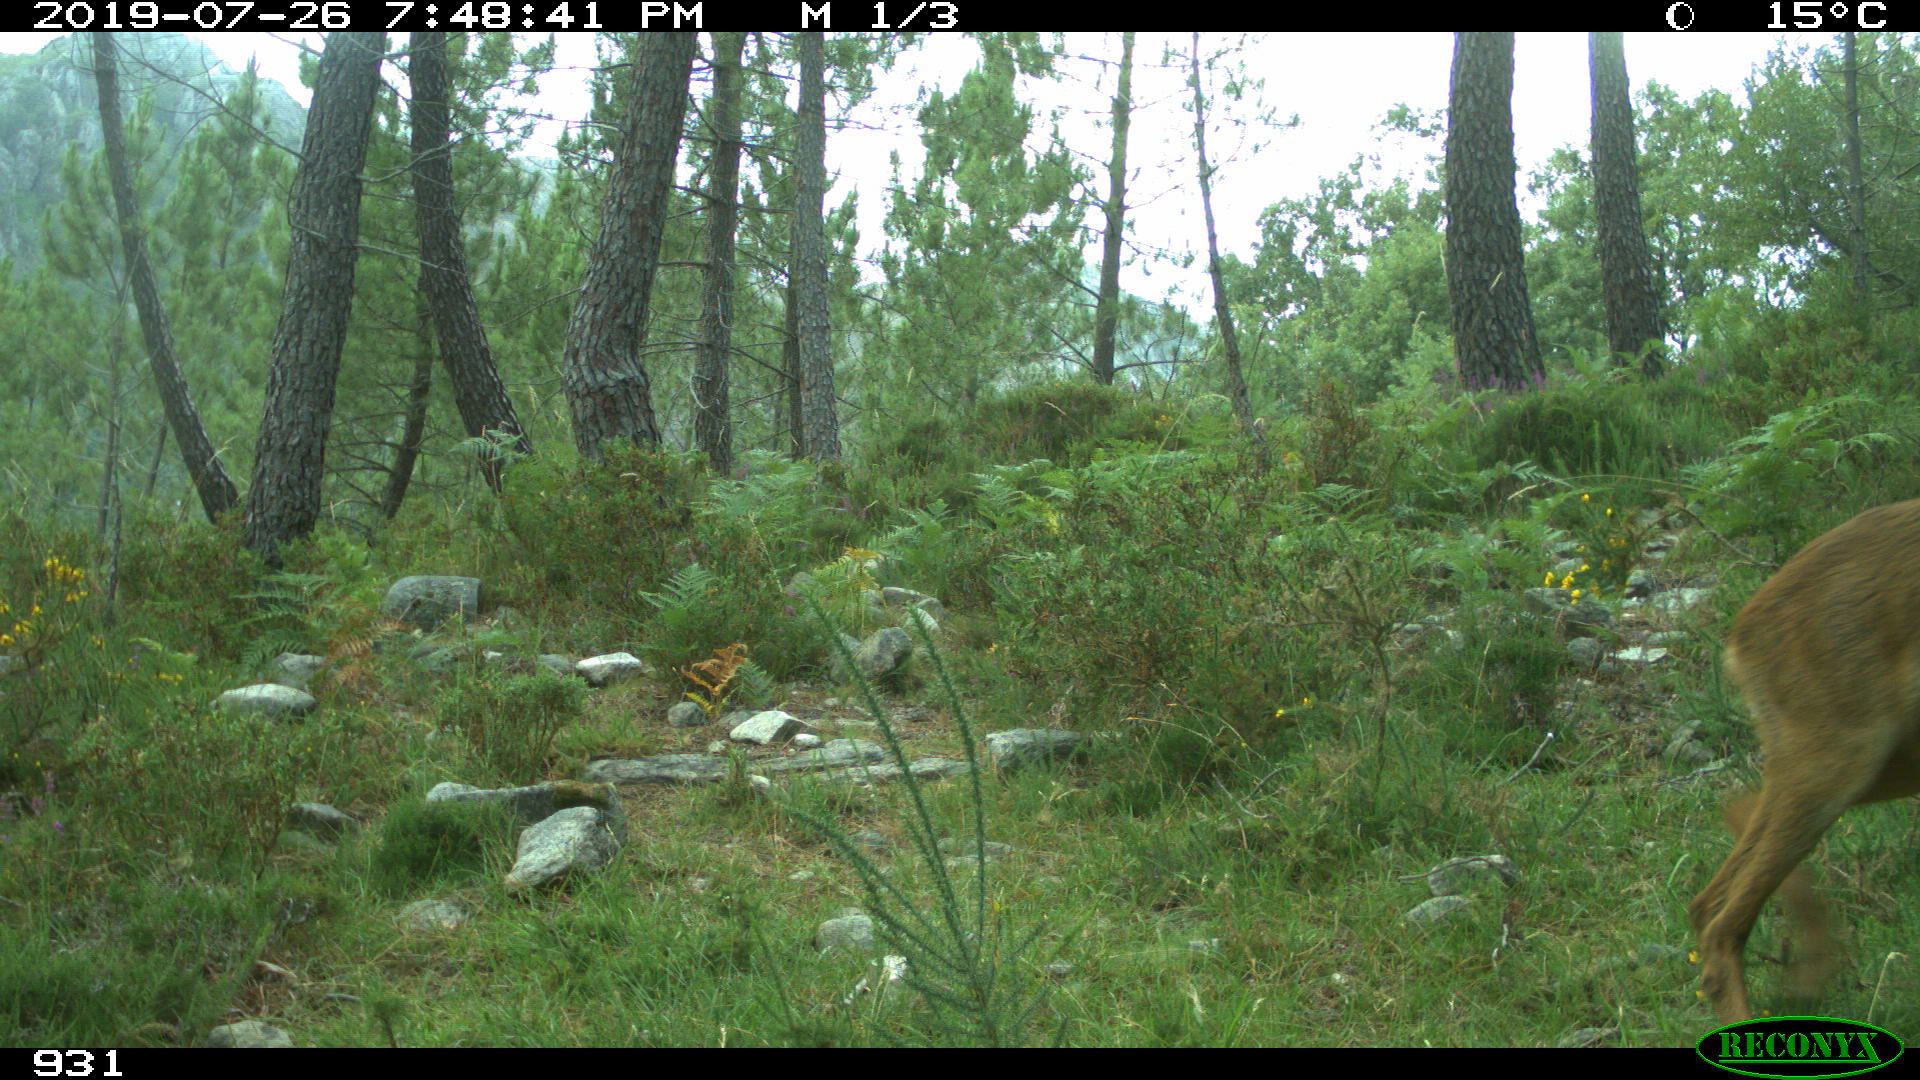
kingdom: Animalia
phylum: Chordata
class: Mammalia
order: Artiodactyla
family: Cervidae
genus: Capreolus
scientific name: Capreolus capreolus
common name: Western roe deer
